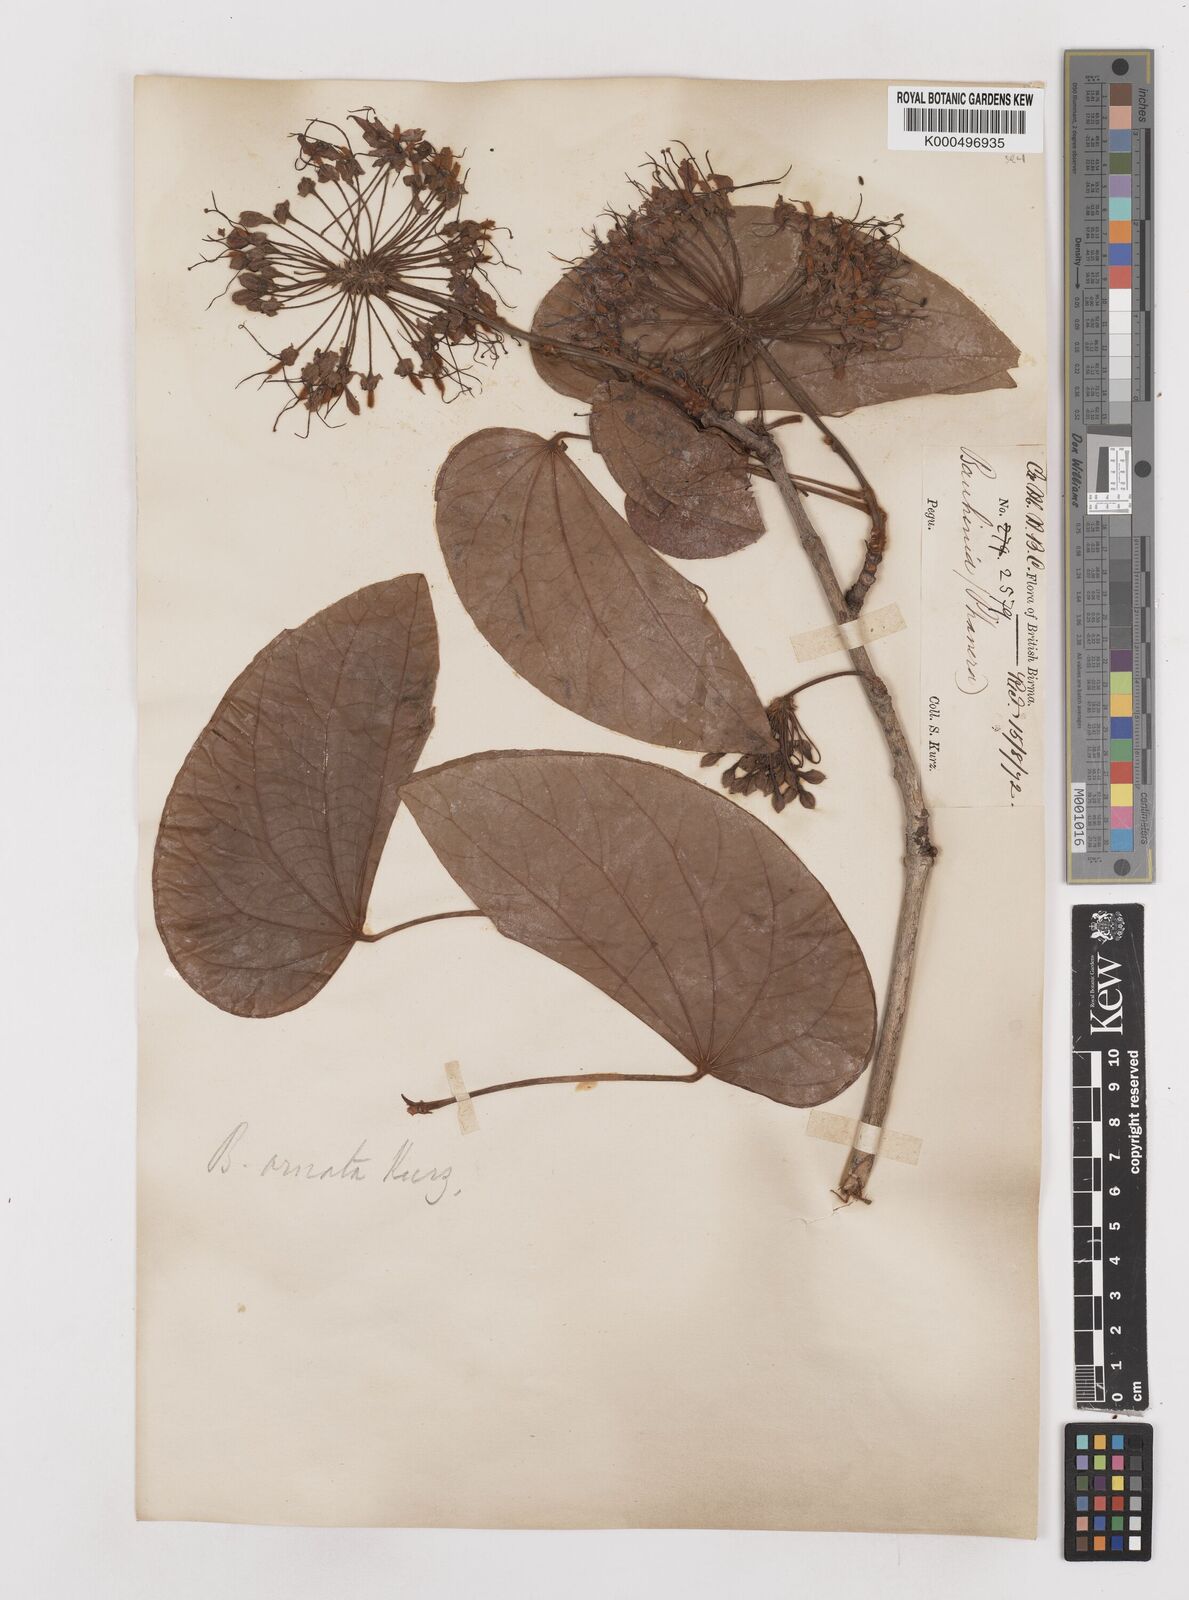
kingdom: Plantae
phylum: Tracheophyta
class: Magnoliopsida
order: Fabales
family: Fabaceae
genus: Phanera
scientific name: Phanera ornata
